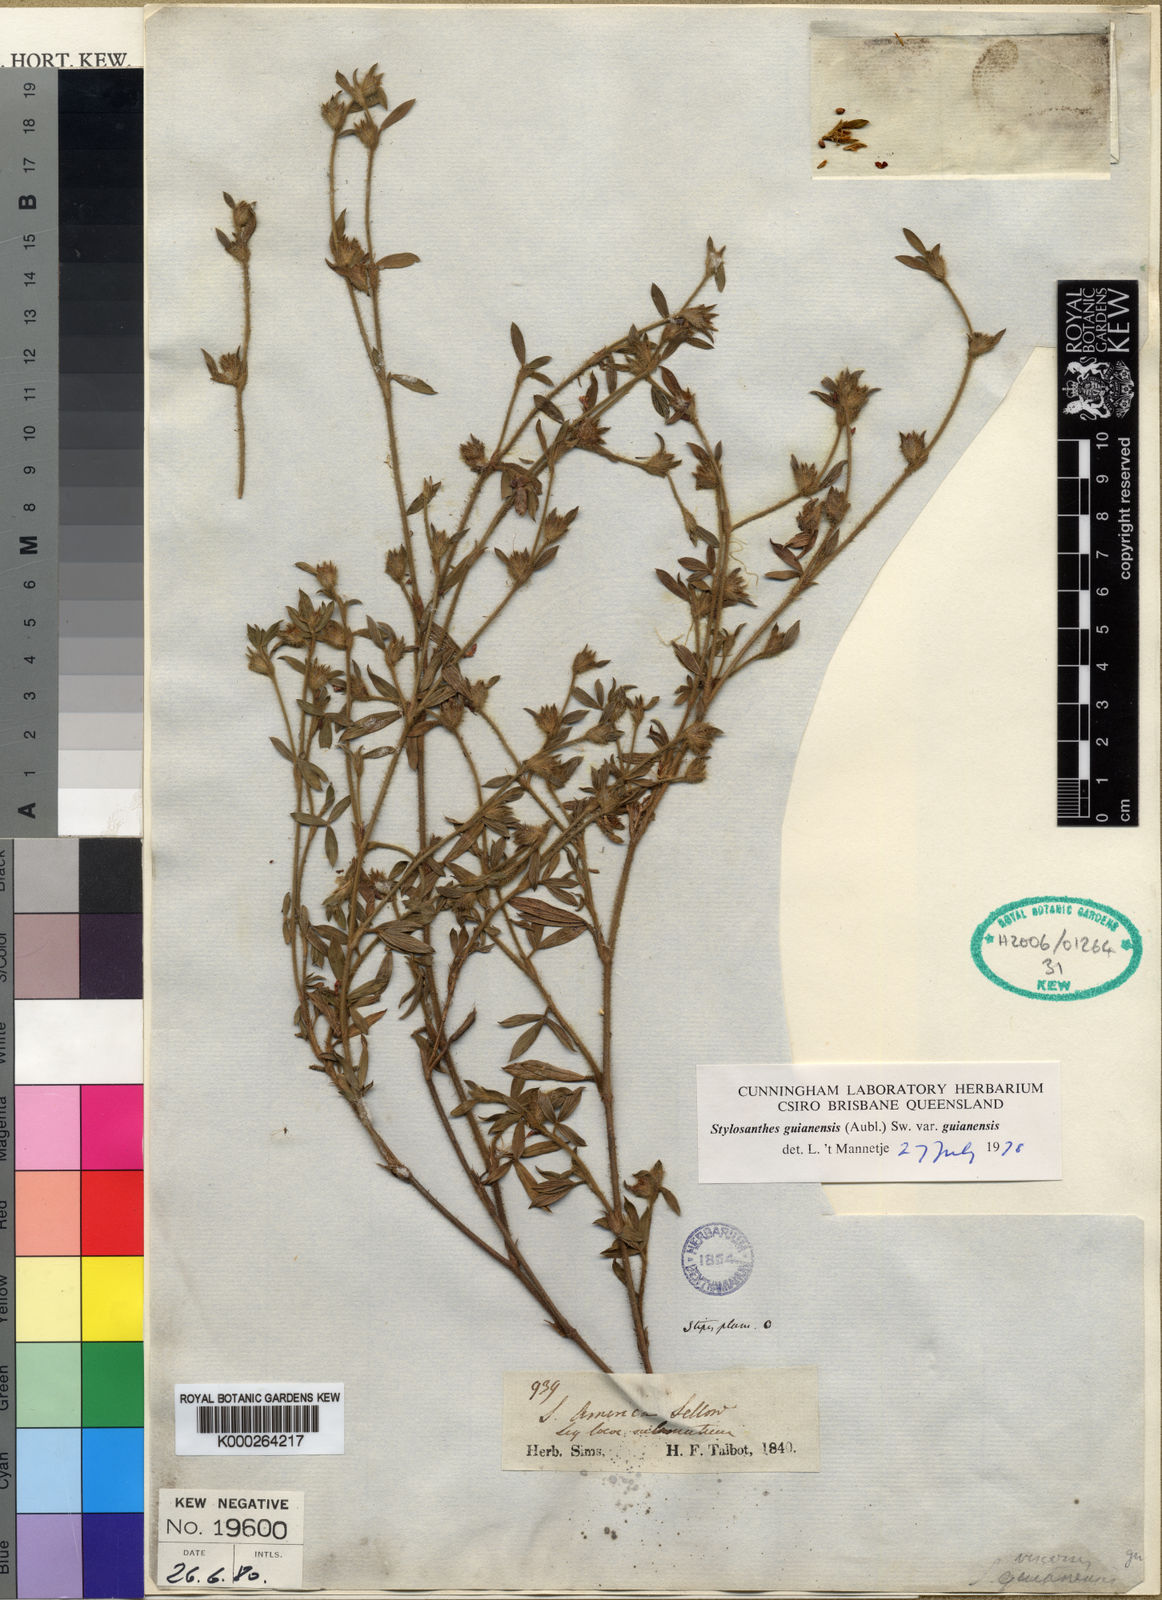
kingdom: Plantae
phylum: Tracheophyta
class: Magnoliopsida
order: Fabales
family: Fabaceae
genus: Stylosanthes
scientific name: Stylosanthes guianensis
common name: Pencil flower
